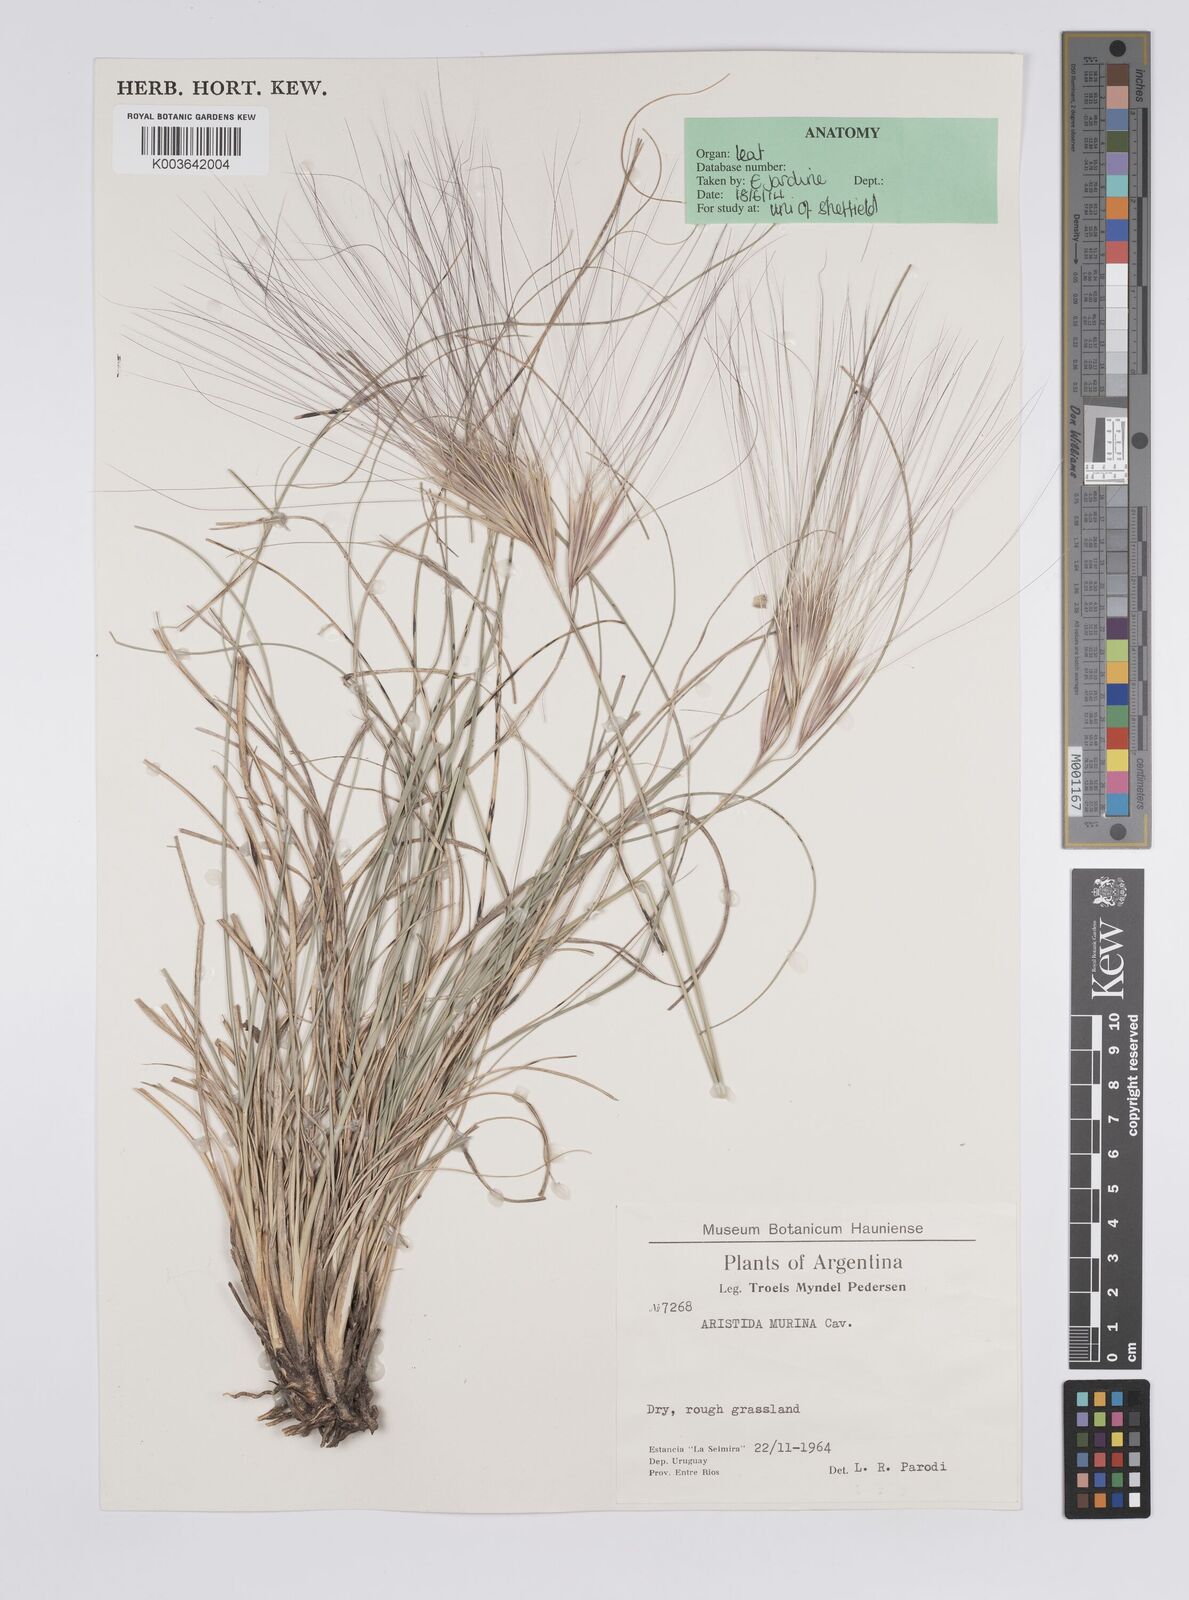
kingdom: Plantae
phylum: Tracheophyta
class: Liliopsida
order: Poales
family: Poaceae
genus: Aristida
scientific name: Aristida murina
